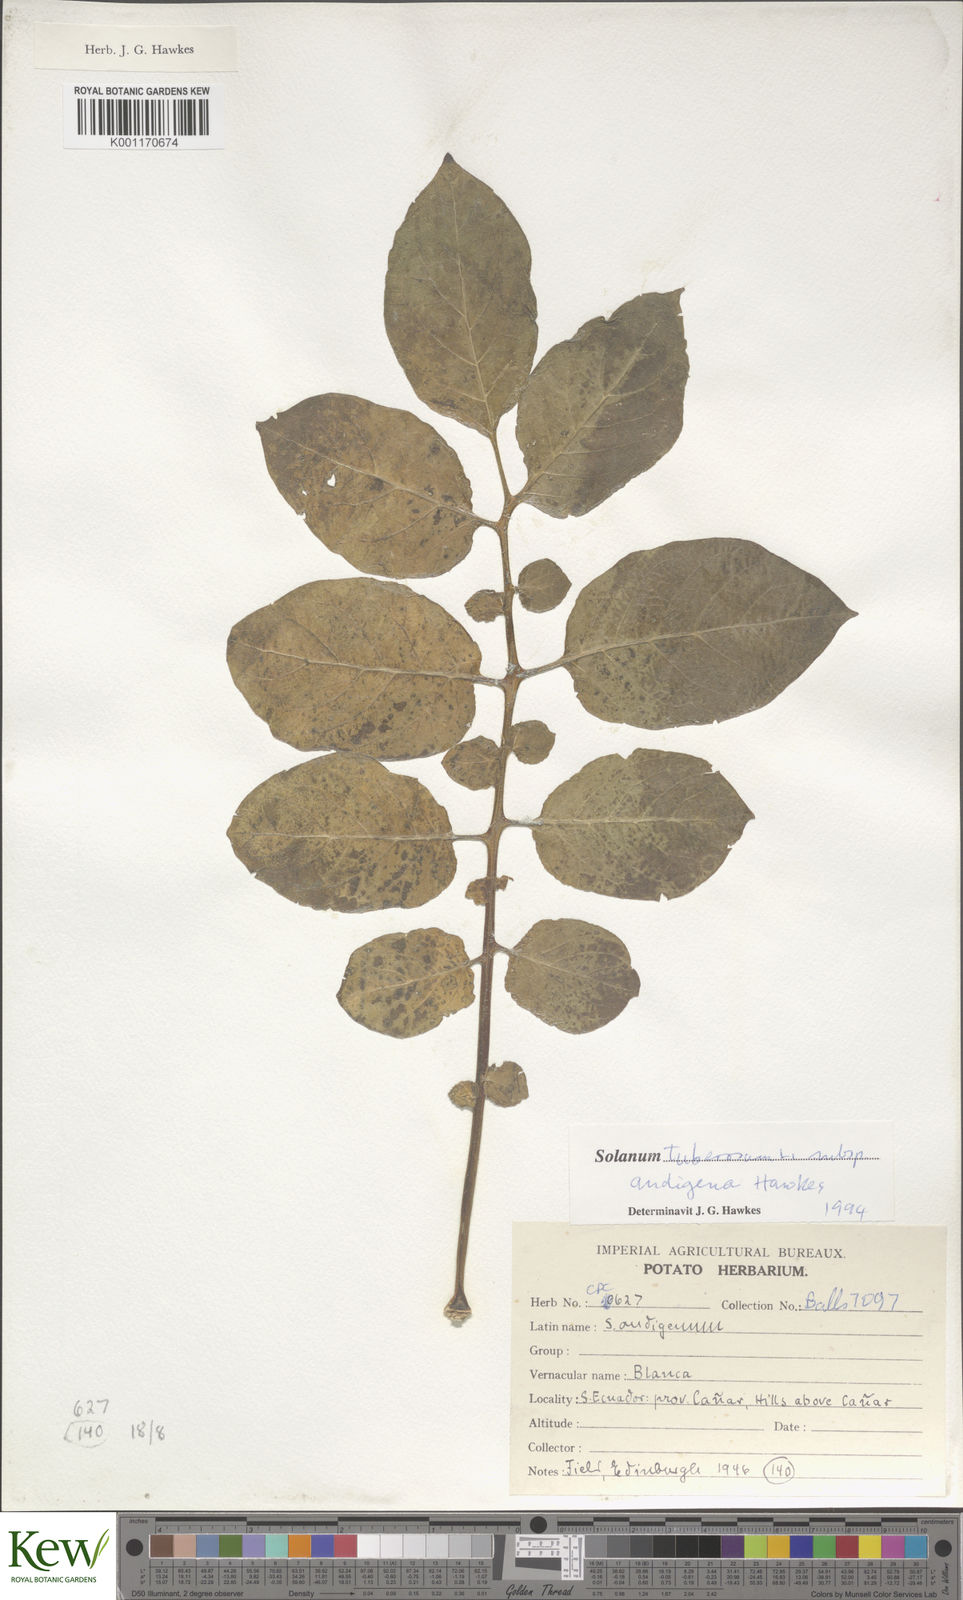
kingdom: Plantae
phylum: Tracheophyta
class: Magnoliopsida
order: Solanales
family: Solanaceae
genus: Solanum
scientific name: Solanum tuberosum
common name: Potato
